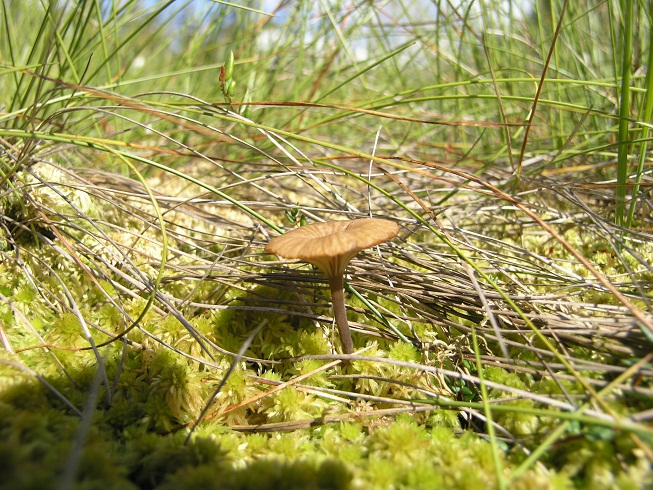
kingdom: Fungi
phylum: Basidiomycota
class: Agaricomycetes
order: Agaricales
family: Hygrophoraceae
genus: Arrhenia
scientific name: Arrhenia gerardiana
